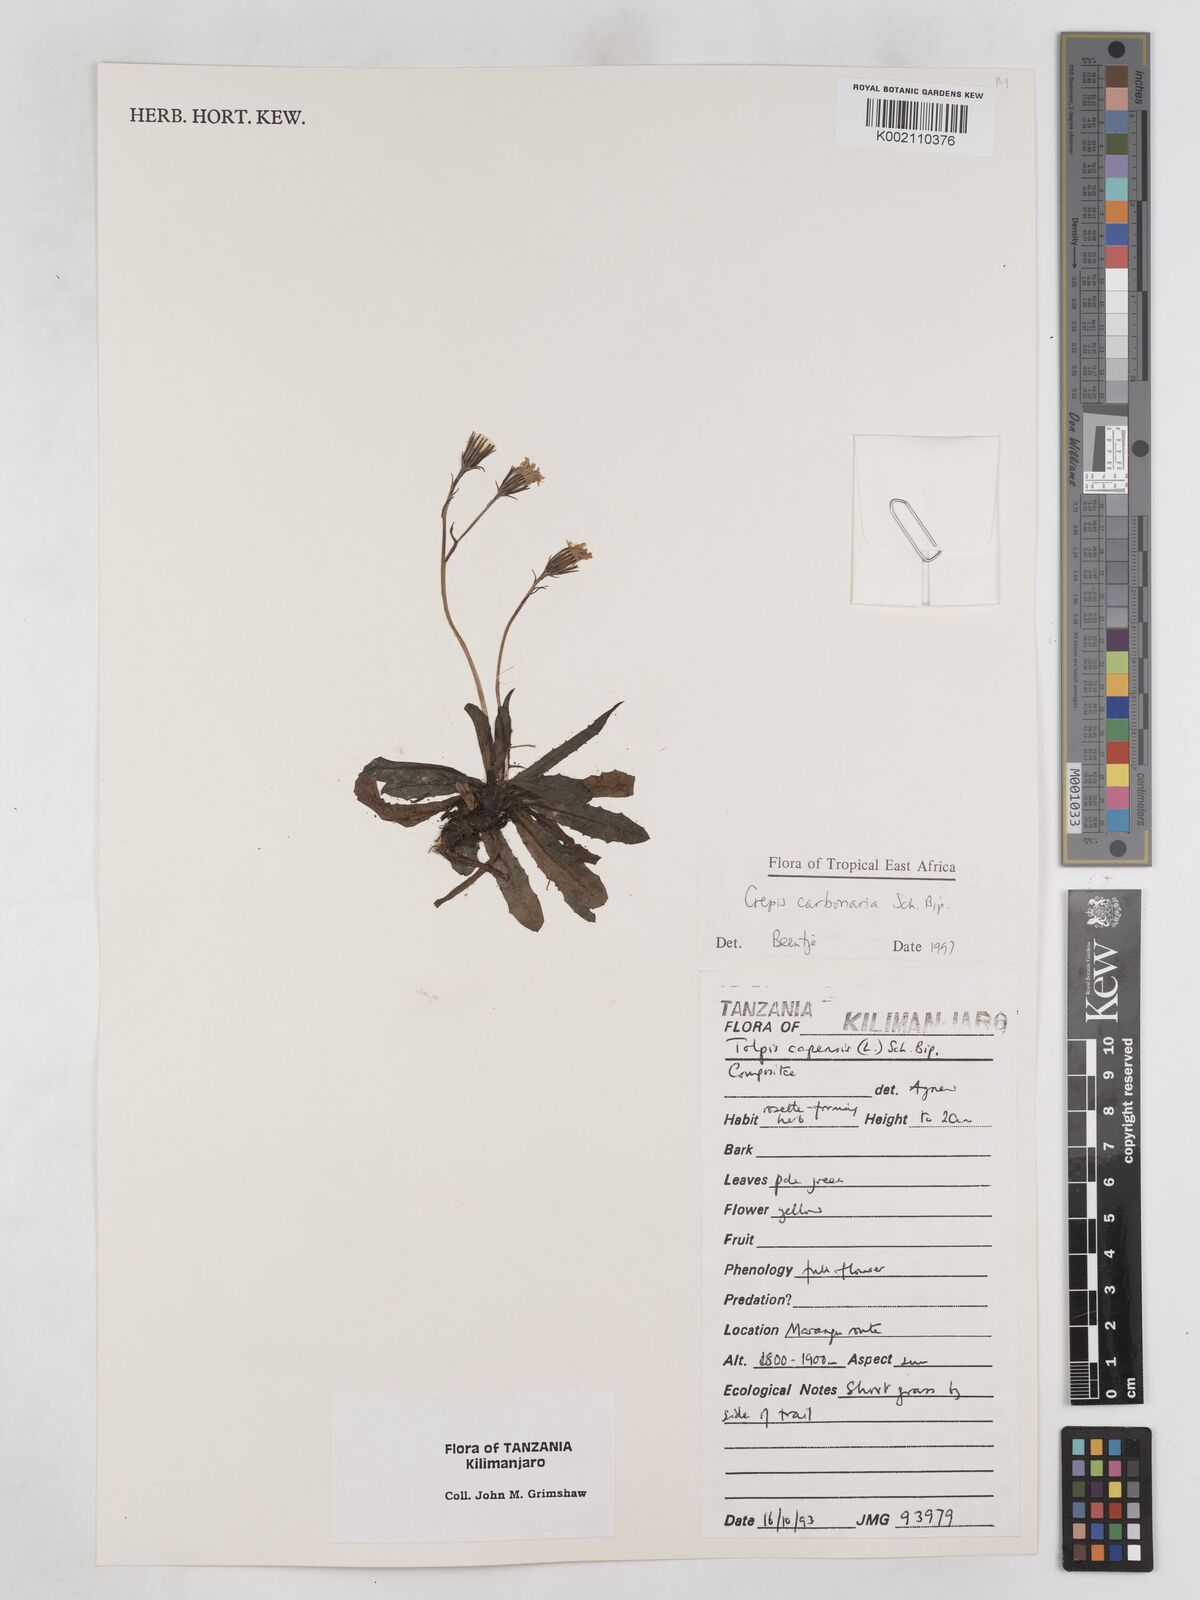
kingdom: Plantae
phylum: Tracheophyta
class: Magnoliopsida
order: Asterales
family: Asteraceae
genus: Crepis
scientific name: Crepis carbonaria
